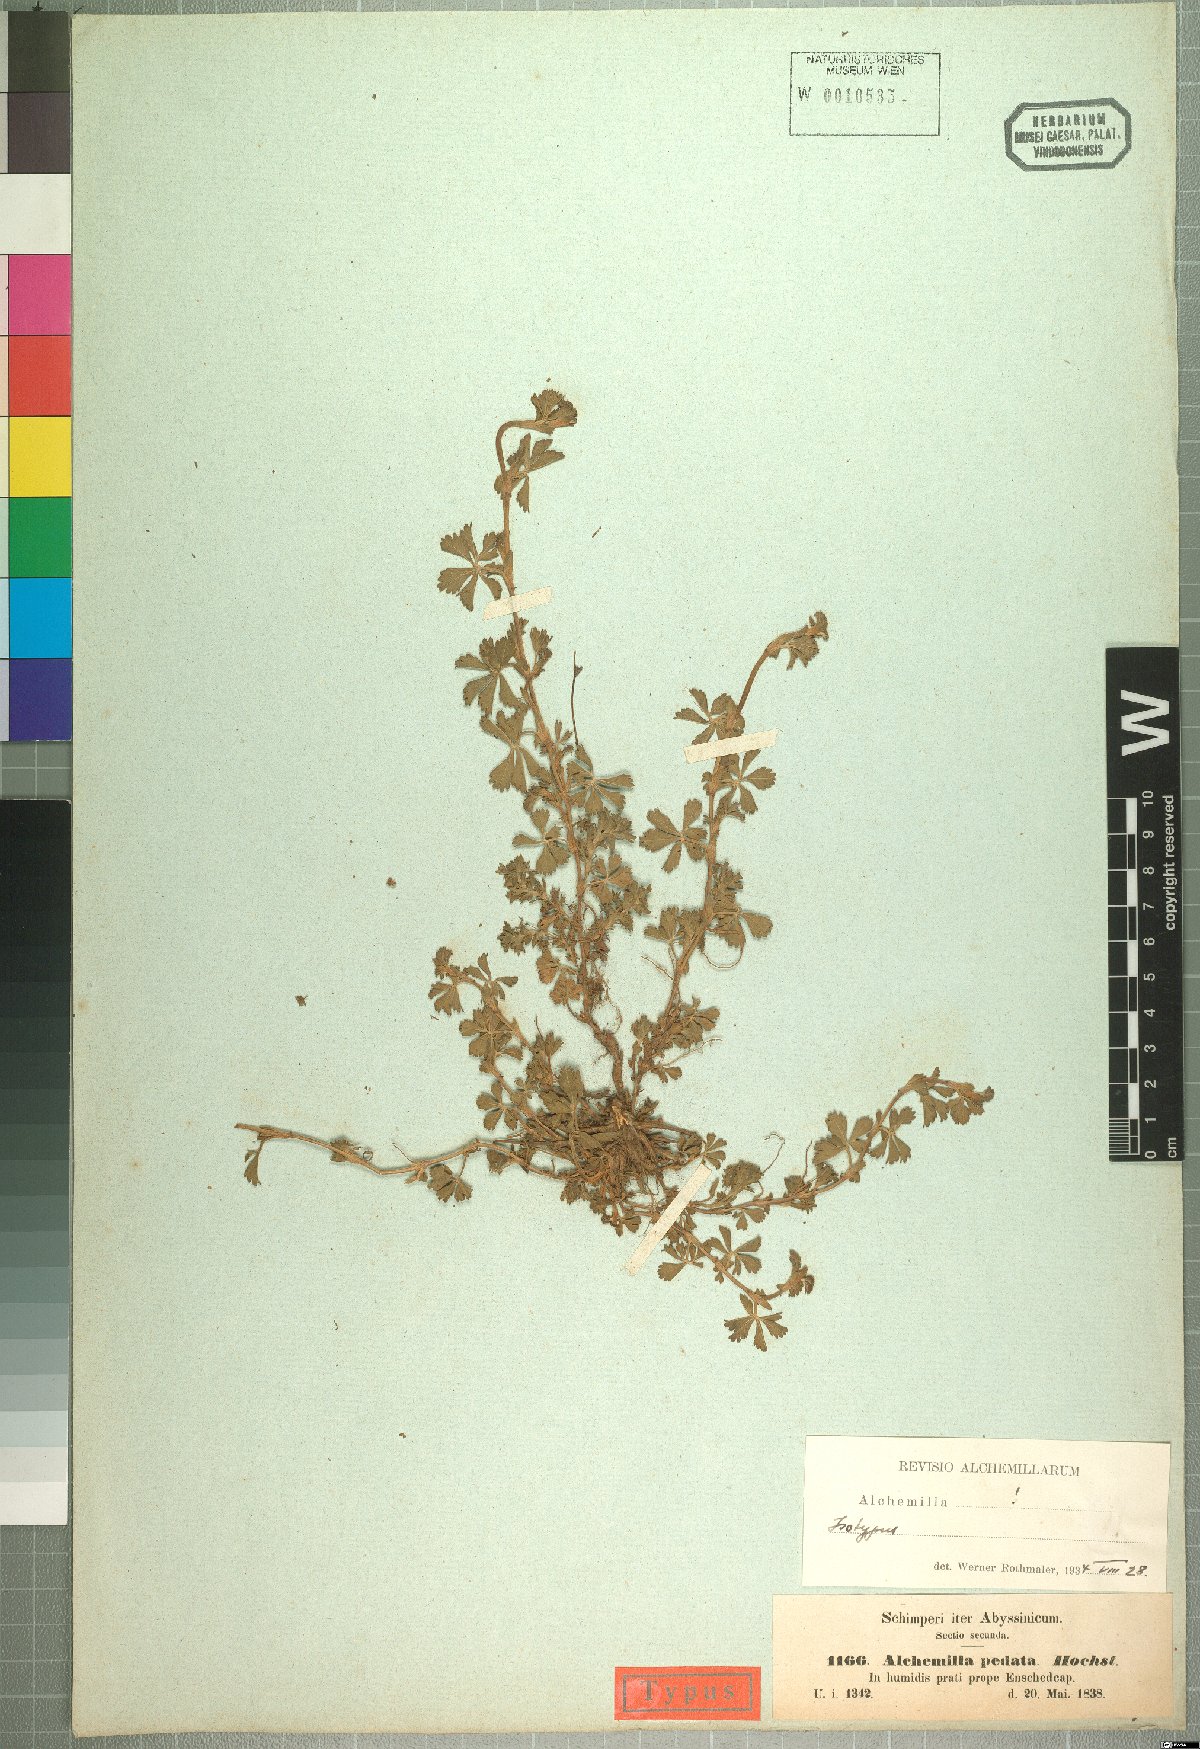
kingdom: Plantae
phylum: Tracheophyta
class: Magnoliopsida
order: Rosales
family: Rosaceae
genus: Alchemilla
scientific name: Alchemilla pedata
